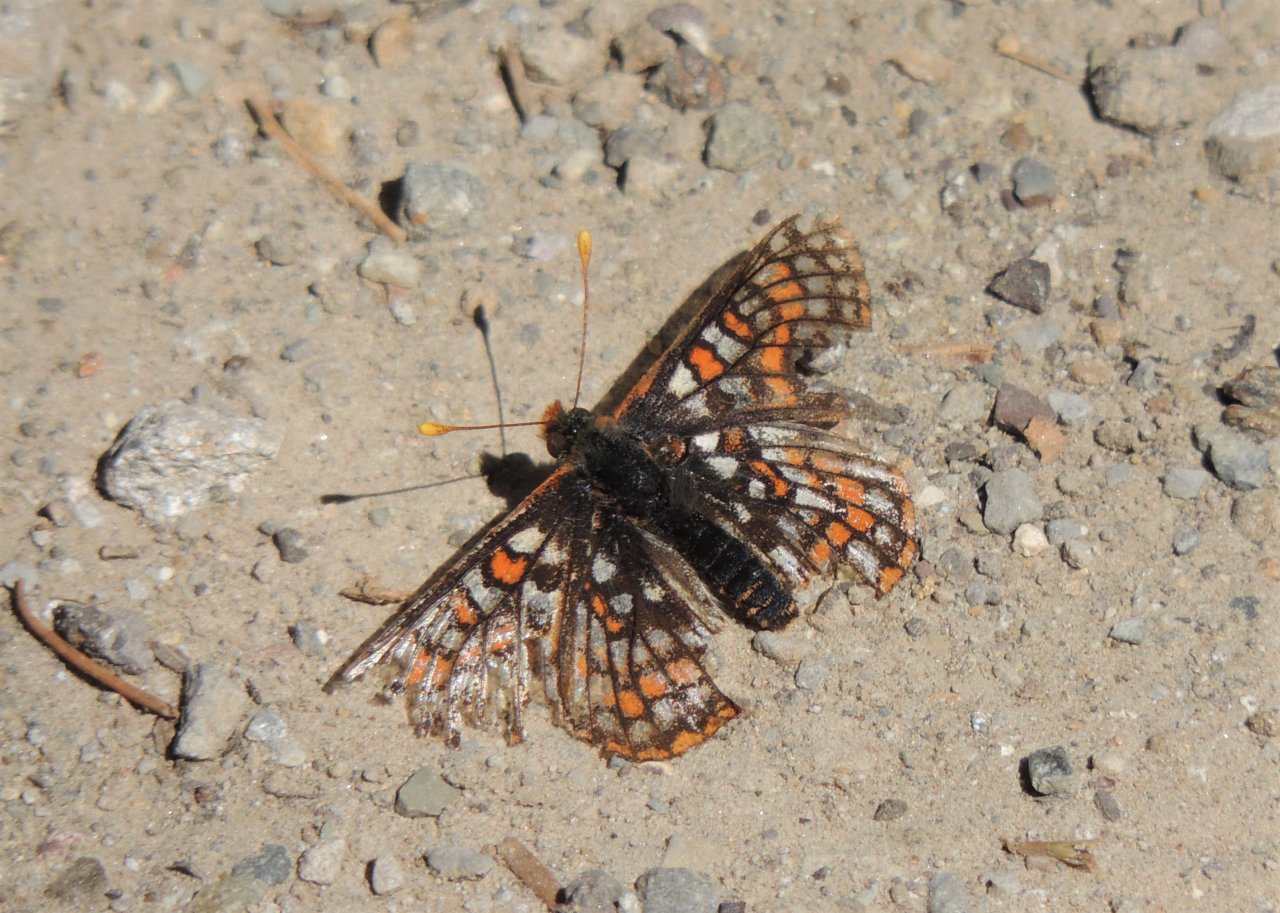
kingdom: Animalia
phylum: Arthropoda
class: Insecta
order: Lepidoptera
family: Nymphalidae
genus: Occidryas
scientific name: Occidryas anicia
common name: Anicia Checkerspot
